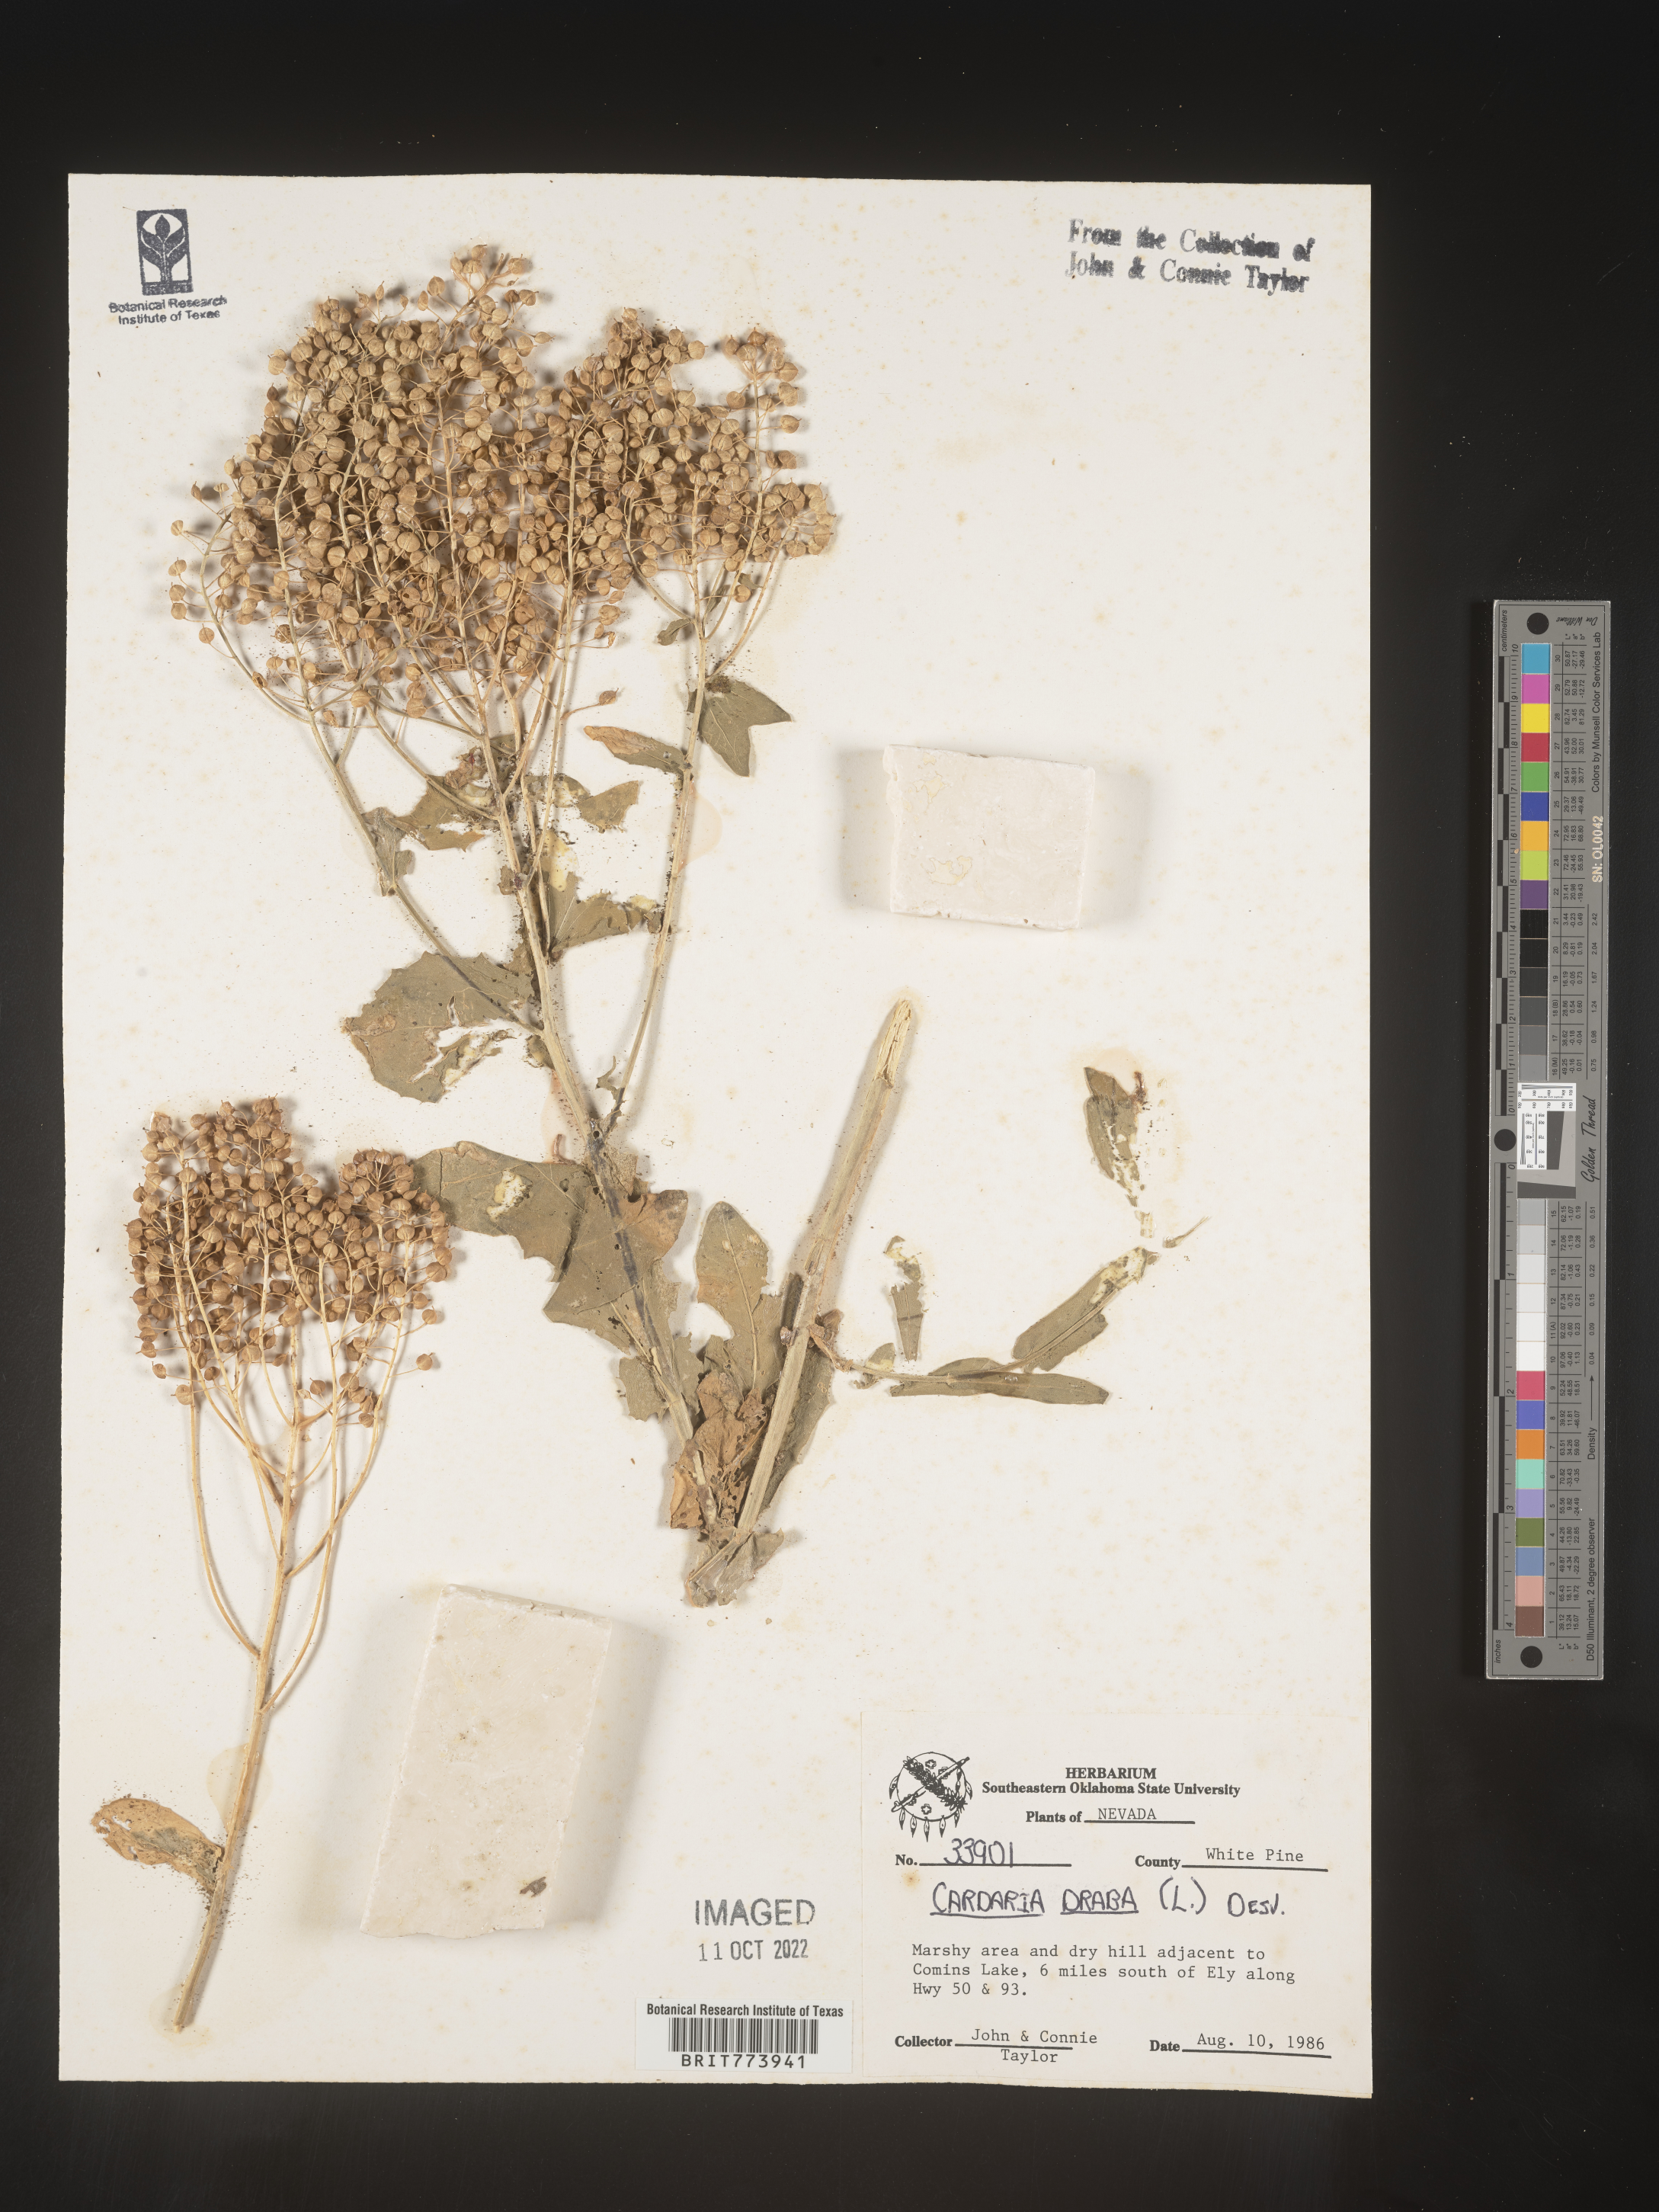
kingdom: Plantae
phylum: Tracheophyta
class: Magnoliopsida
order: Brassicales
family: Brassicaceae
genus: Lepidium
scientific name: Lepidium draba
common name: Hoary cress
